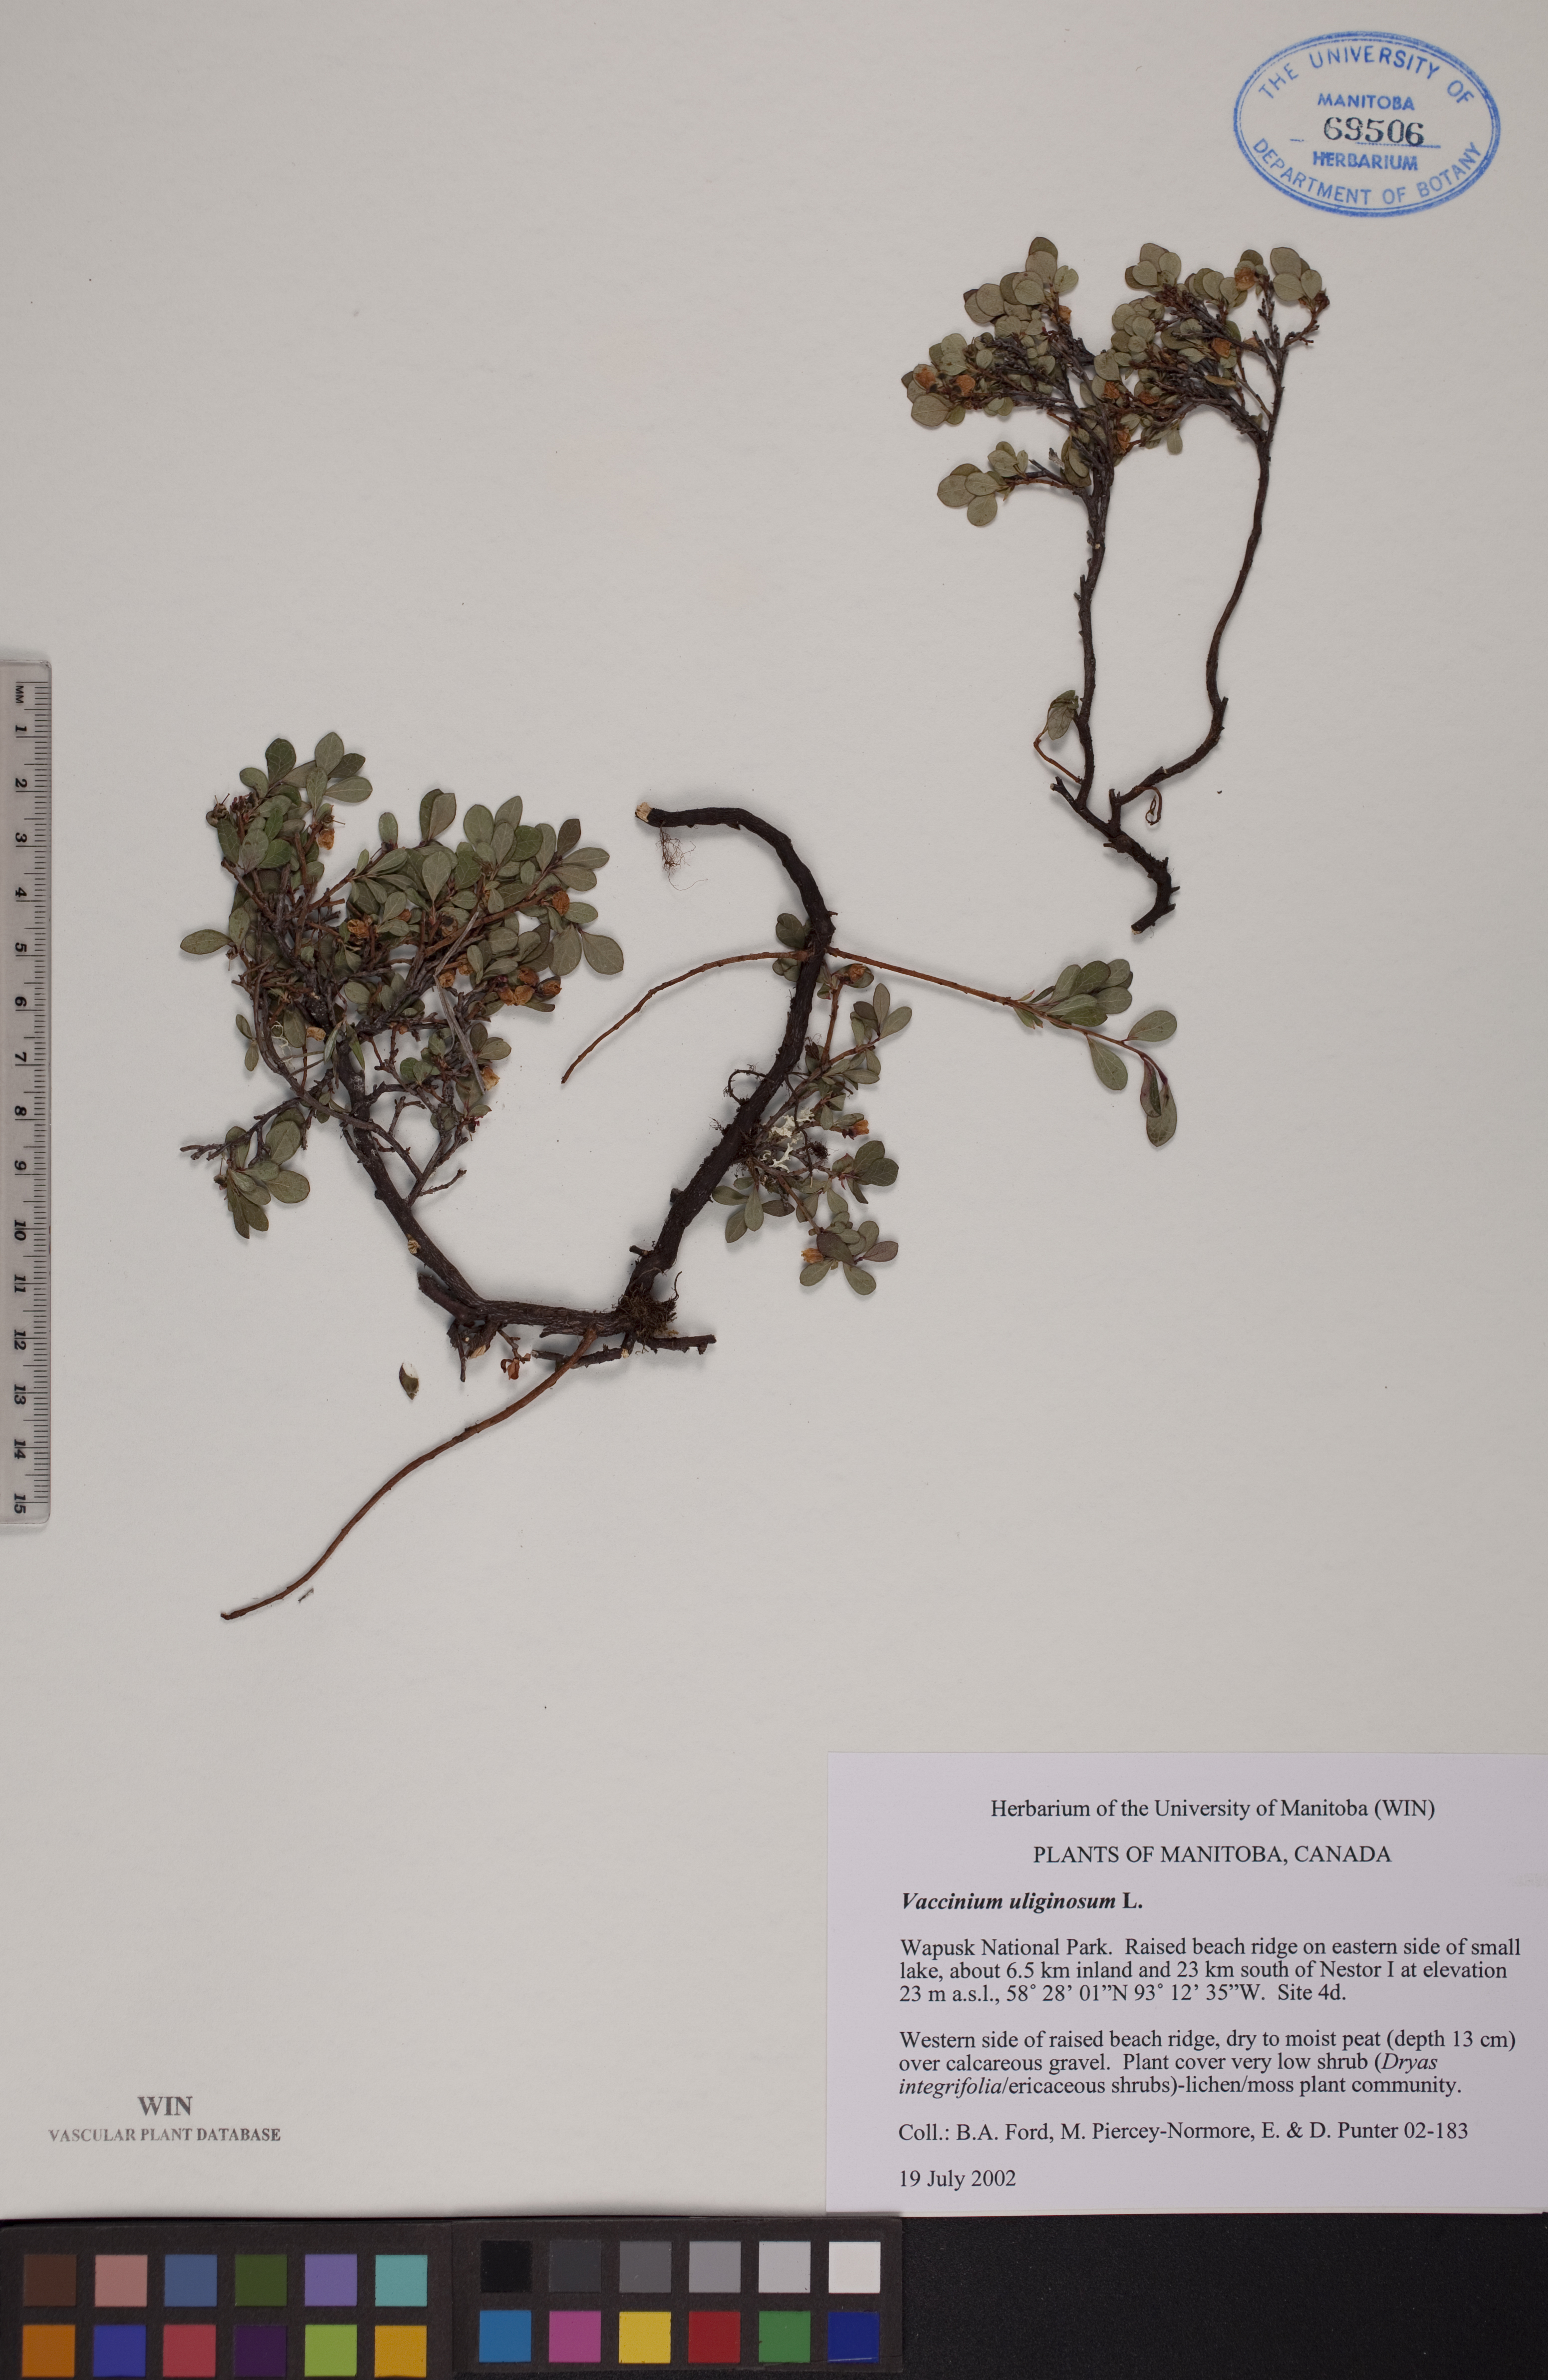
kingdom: Plantae
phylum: Tracheophyta
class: Magnoliopsida
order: Ericales
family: Ericaceae
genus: Vaccinium
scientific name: Vaccinium uliginosum
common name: Bog bilberry
